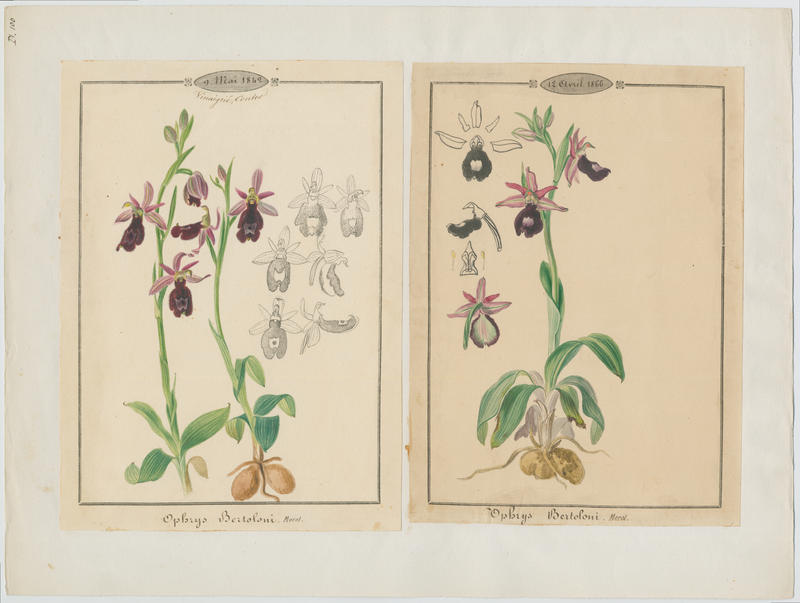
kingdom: Plantae
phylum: Tracheophyta
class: Liliopsida
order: Asparagales
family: Orchidaceae
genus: Ophrys
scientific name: Ophrys bertolonii
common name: Bertoloni's bee orchid
